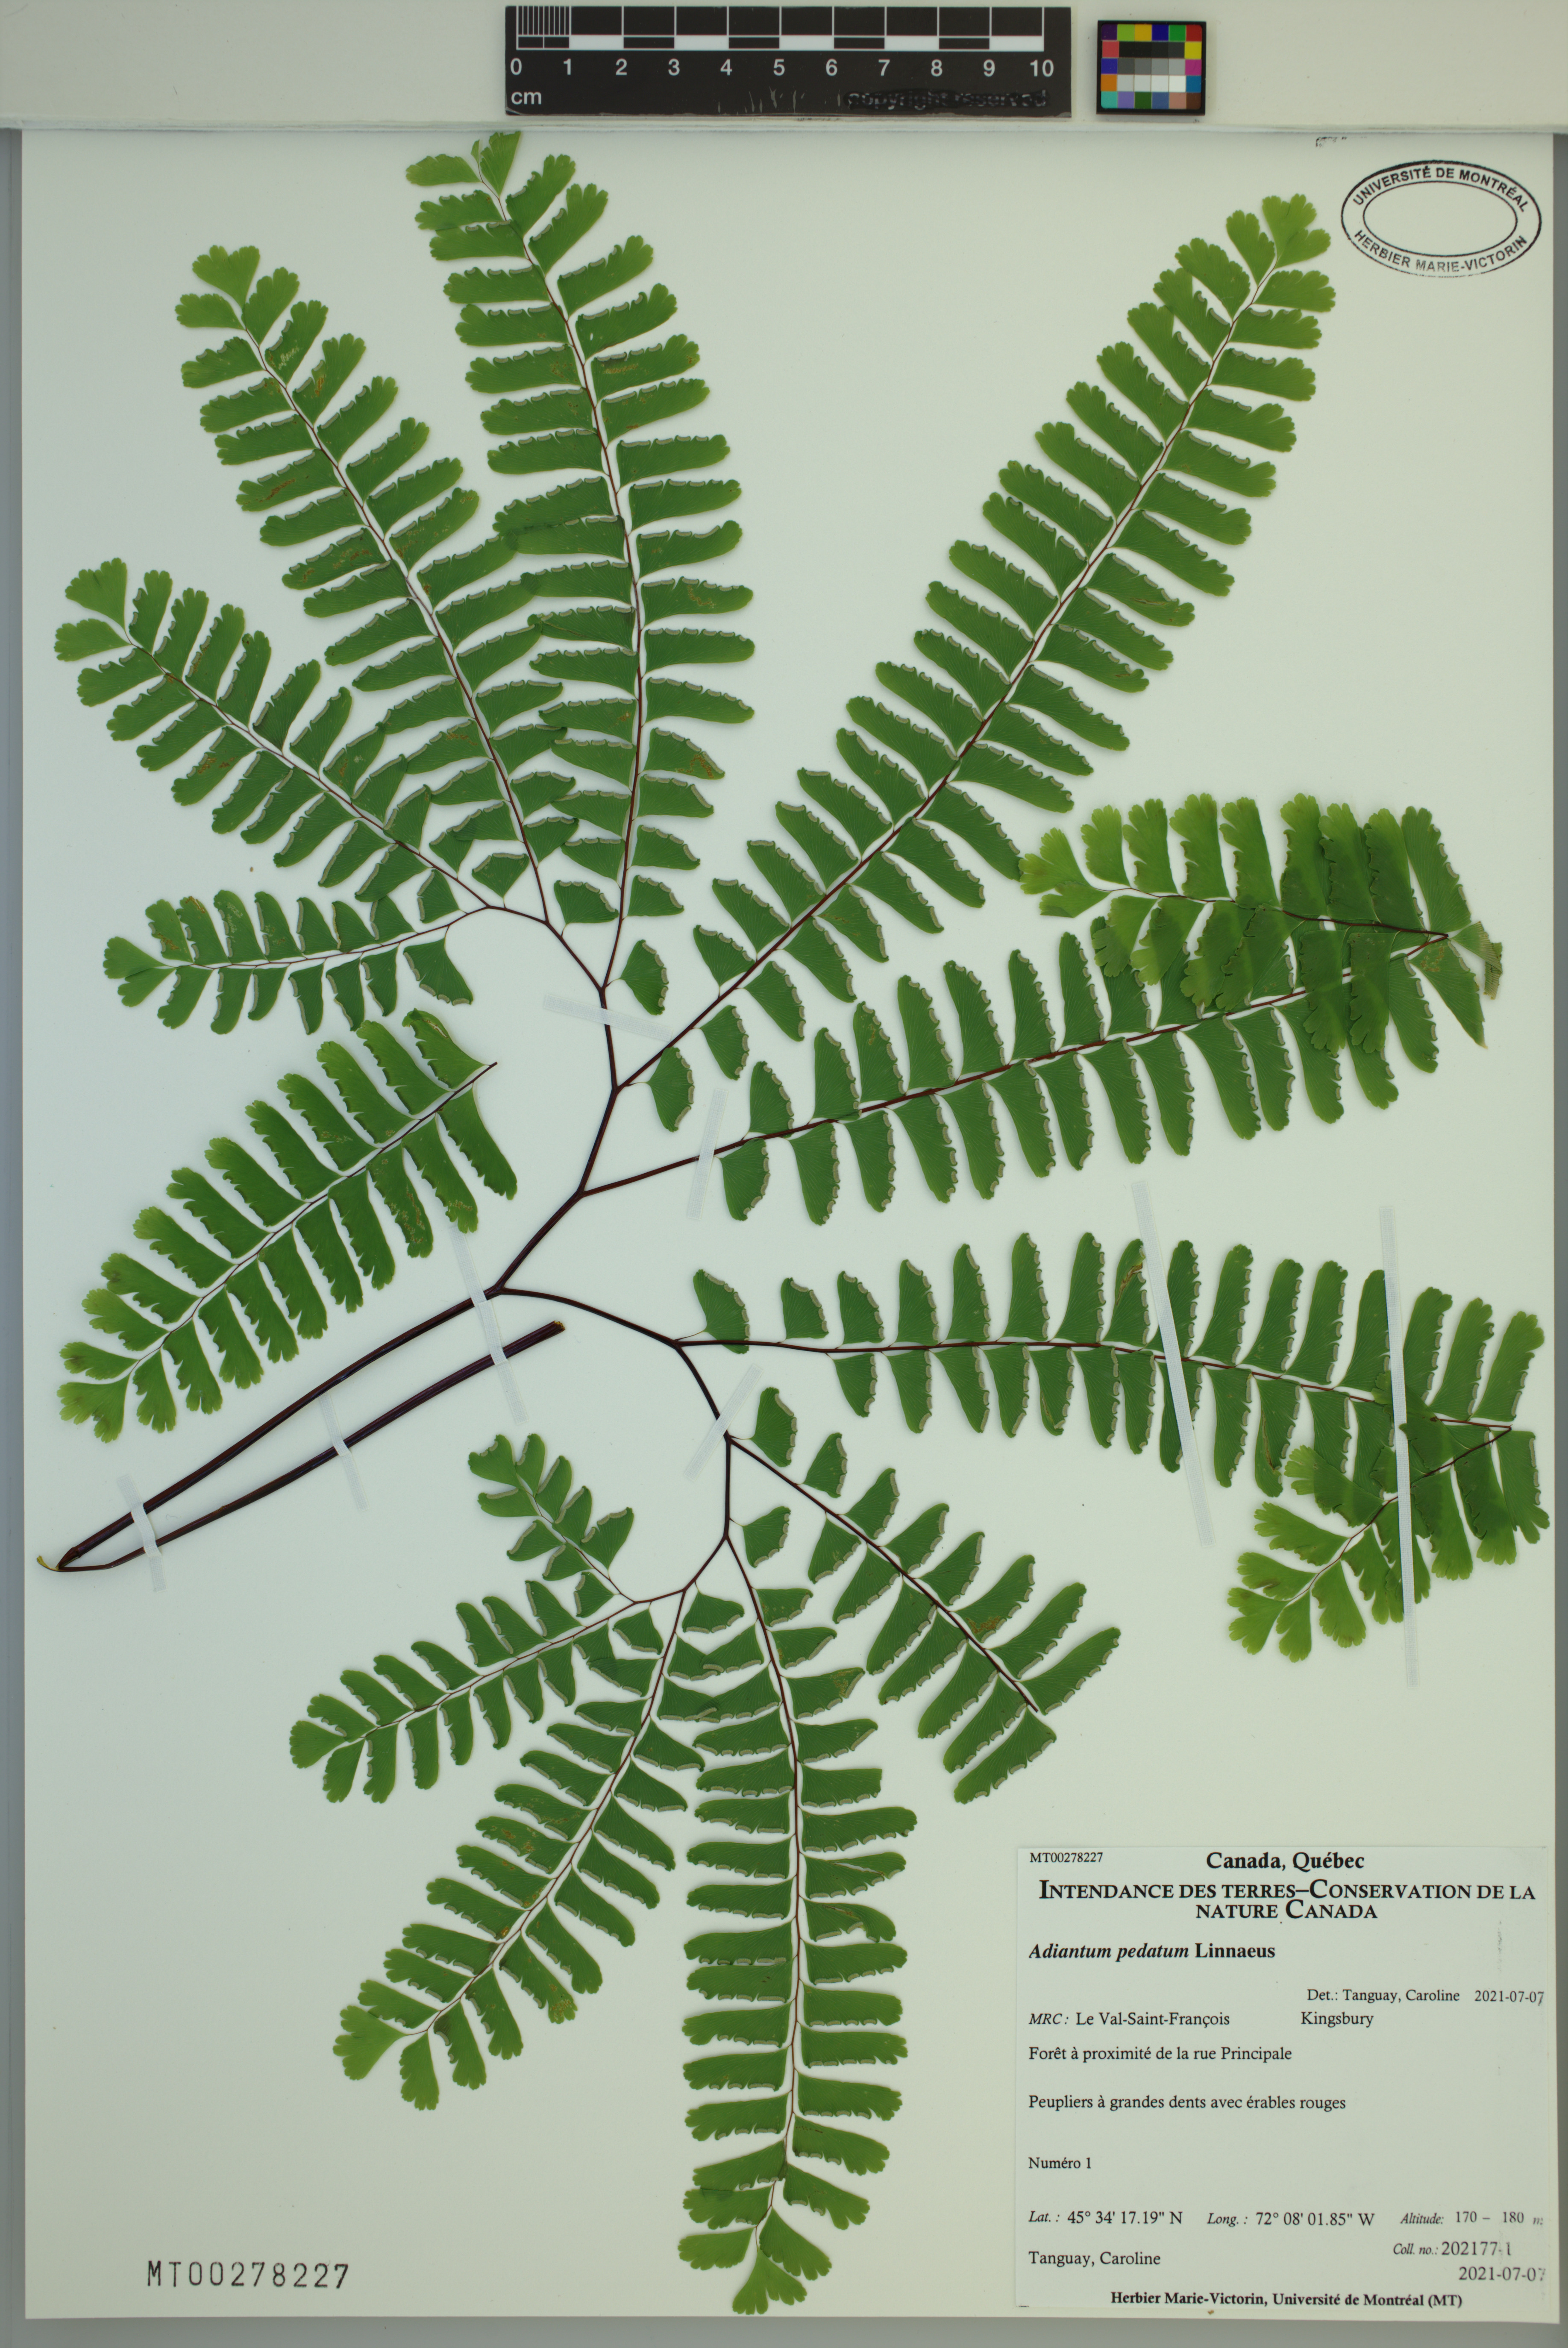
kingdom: Plantae
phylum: Tracheophyta
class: Polypodiopsida
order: Polypodiales
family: Pteridaceae
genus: Adiantum
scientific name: Adiantum pedatum
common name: Five-finger fern
